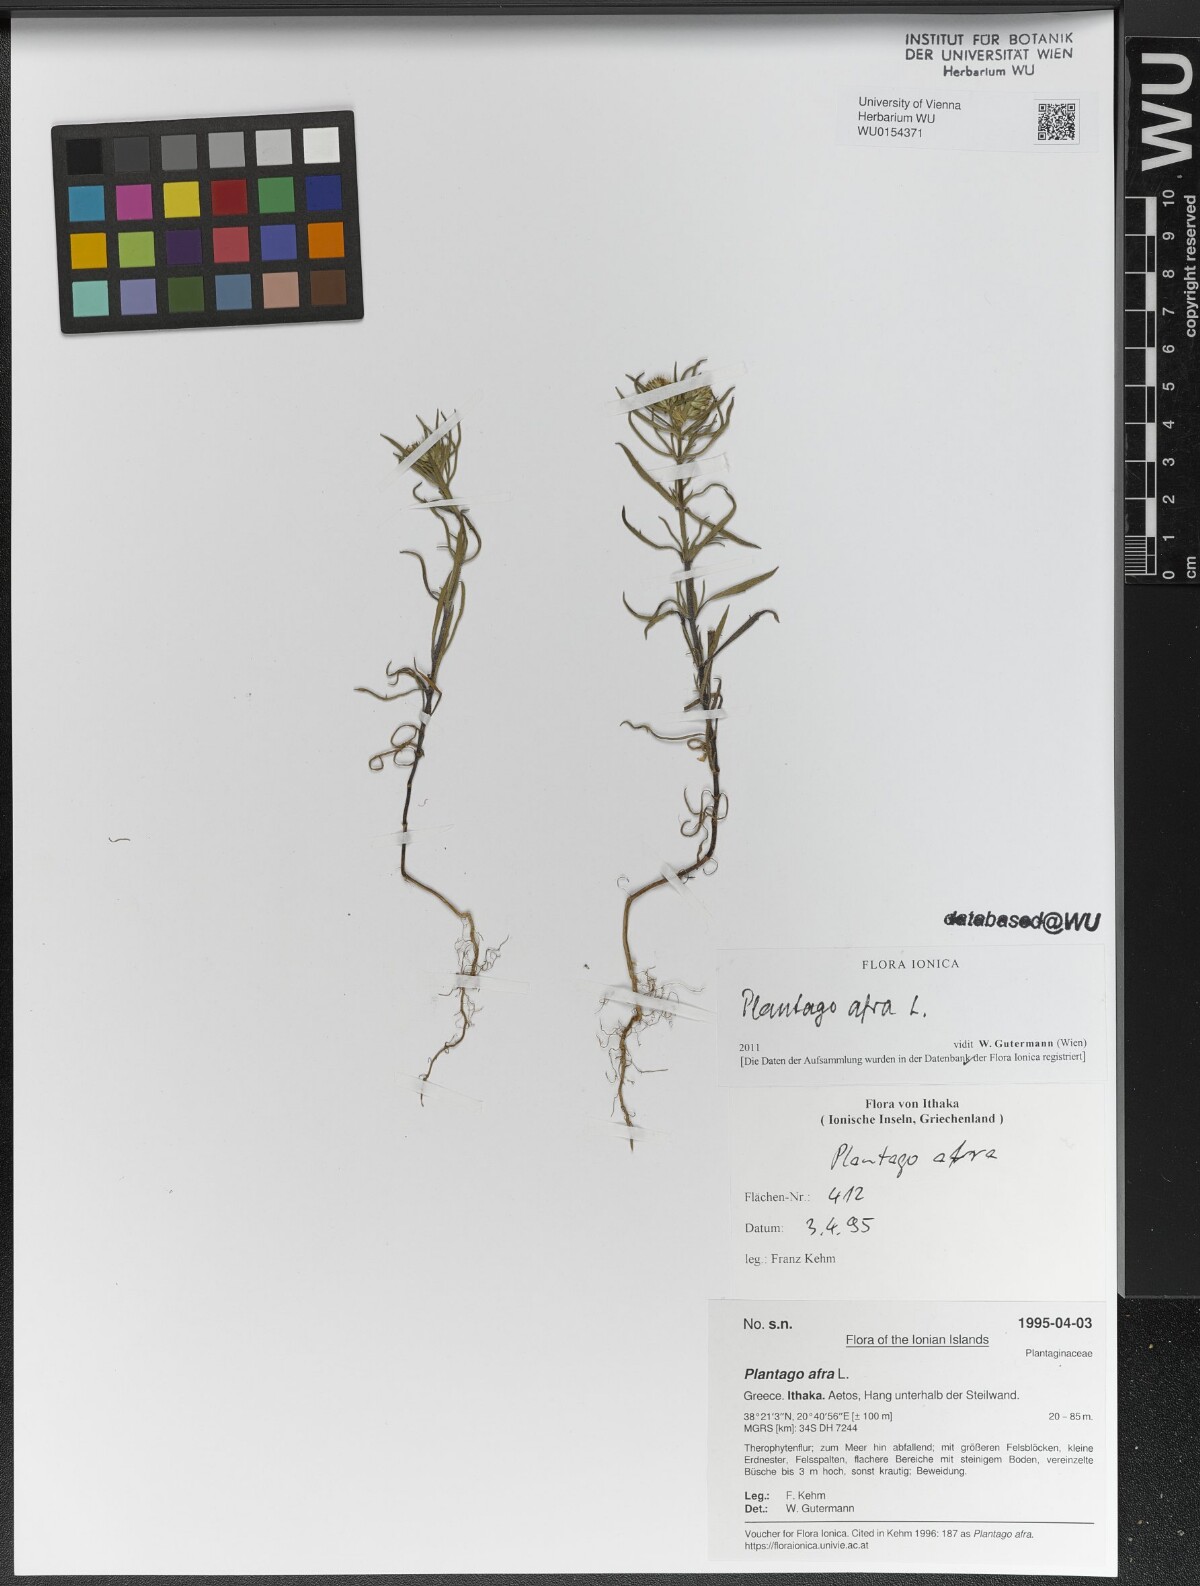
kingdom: Plantae
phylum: Tracheophyta
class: Magnoliopsida
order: Lamiales
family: Plantaginaceae
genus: Plantago
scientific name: Plantago afra
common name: Glandular plantain
